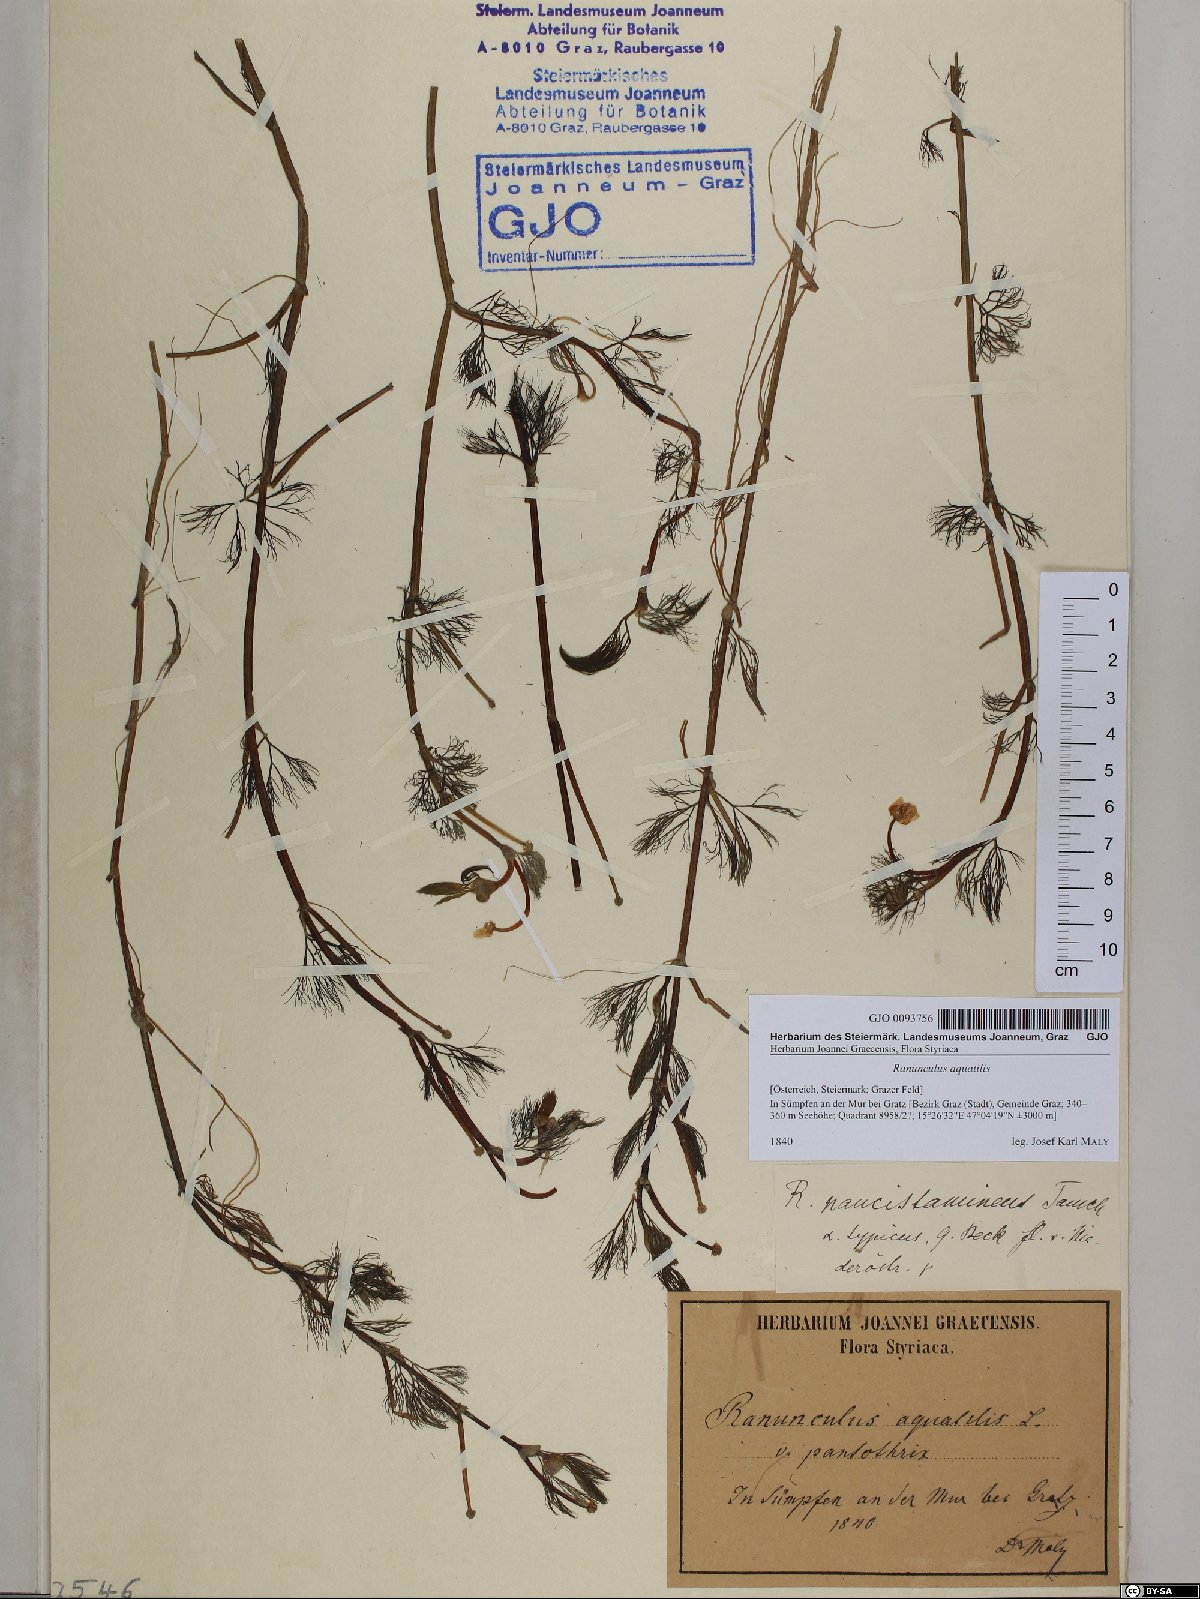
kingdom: Plantae
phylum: Tracheophyta
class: Magnoliopsida
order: Ranunculales
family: Ranunculaceae
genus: Ranunculus
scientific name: Ranunculus aquatilis
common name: Common water-crowfoot
